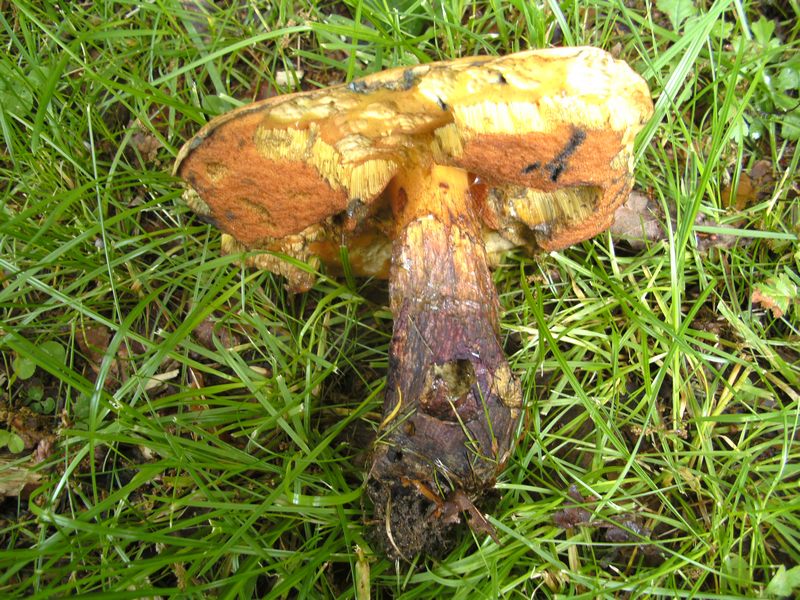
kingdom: Fungi
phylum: Basidiomycota
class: Agaricomycetes
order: Boletales
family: Boletaceae
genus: Suillellus
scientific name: Suillellus luridus
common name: netstokket indigorørhat
